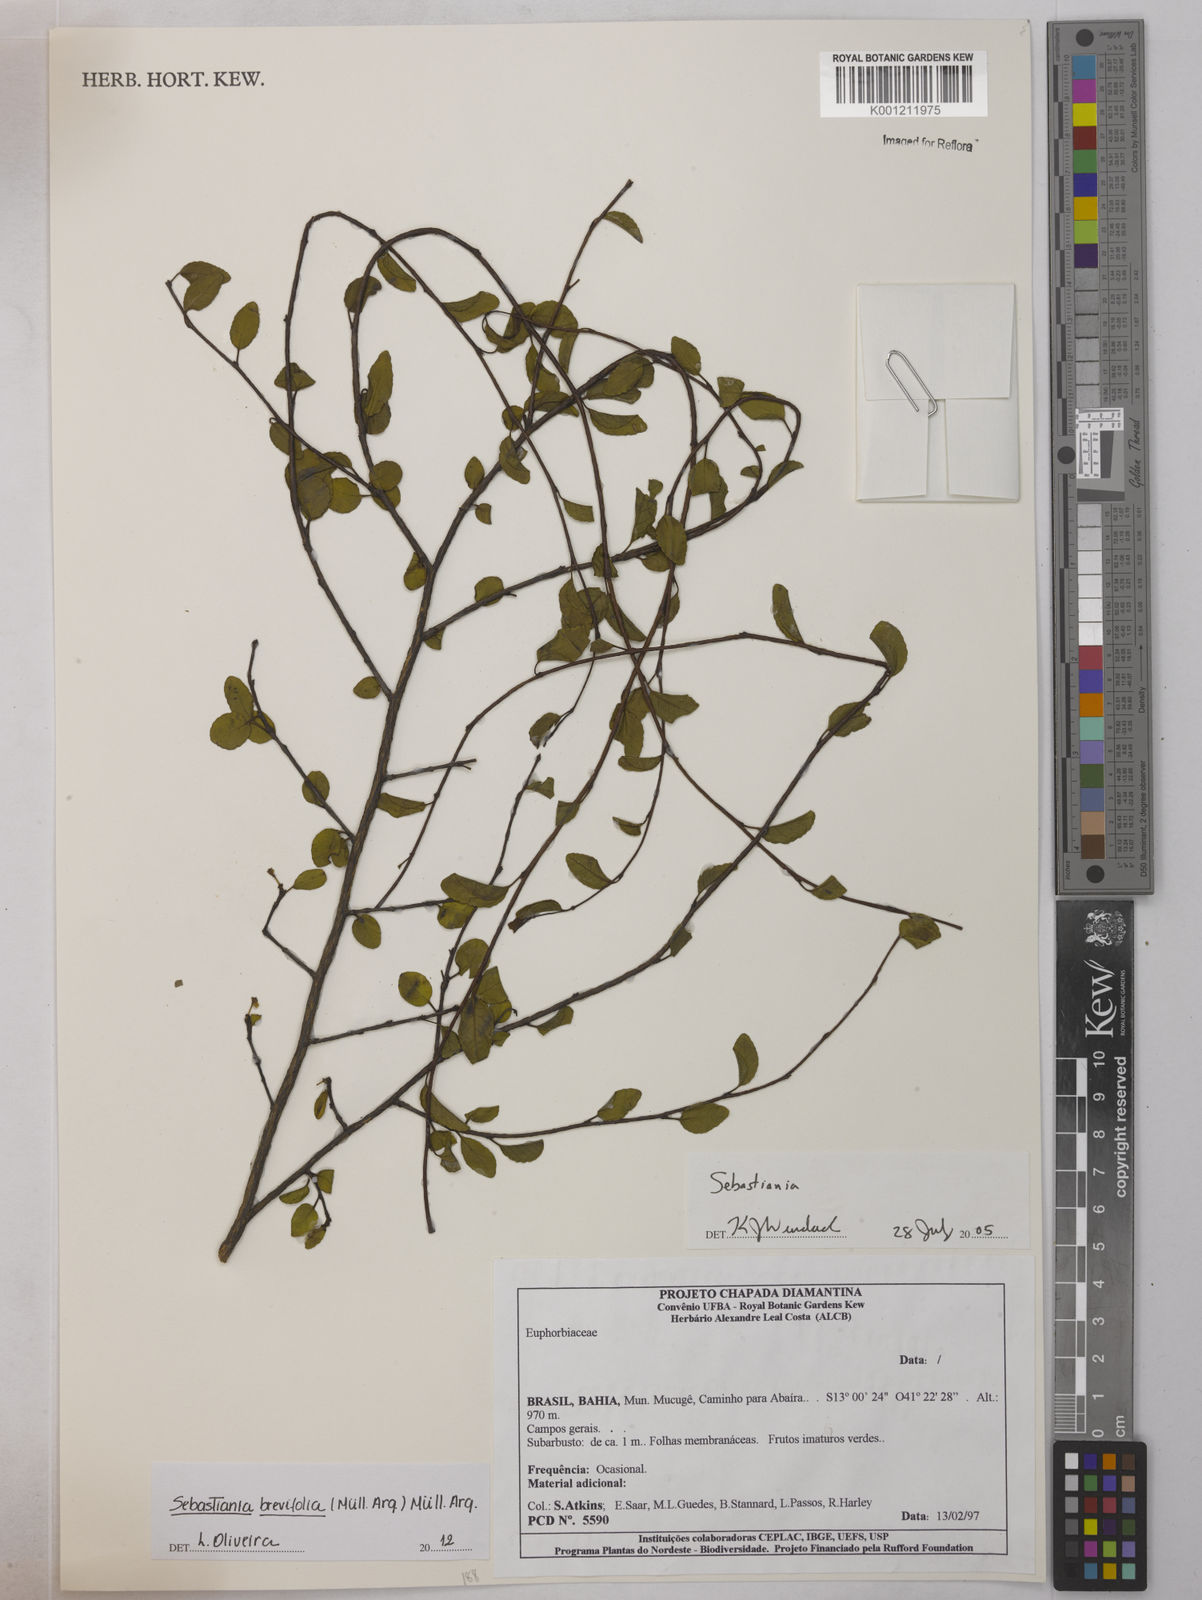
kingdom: Plantae
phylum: Tracheophyta
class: Magnoliopsida
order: Malpighiales
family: Euphorbiaceae
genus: Sebastiania
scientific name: Sebastiania
